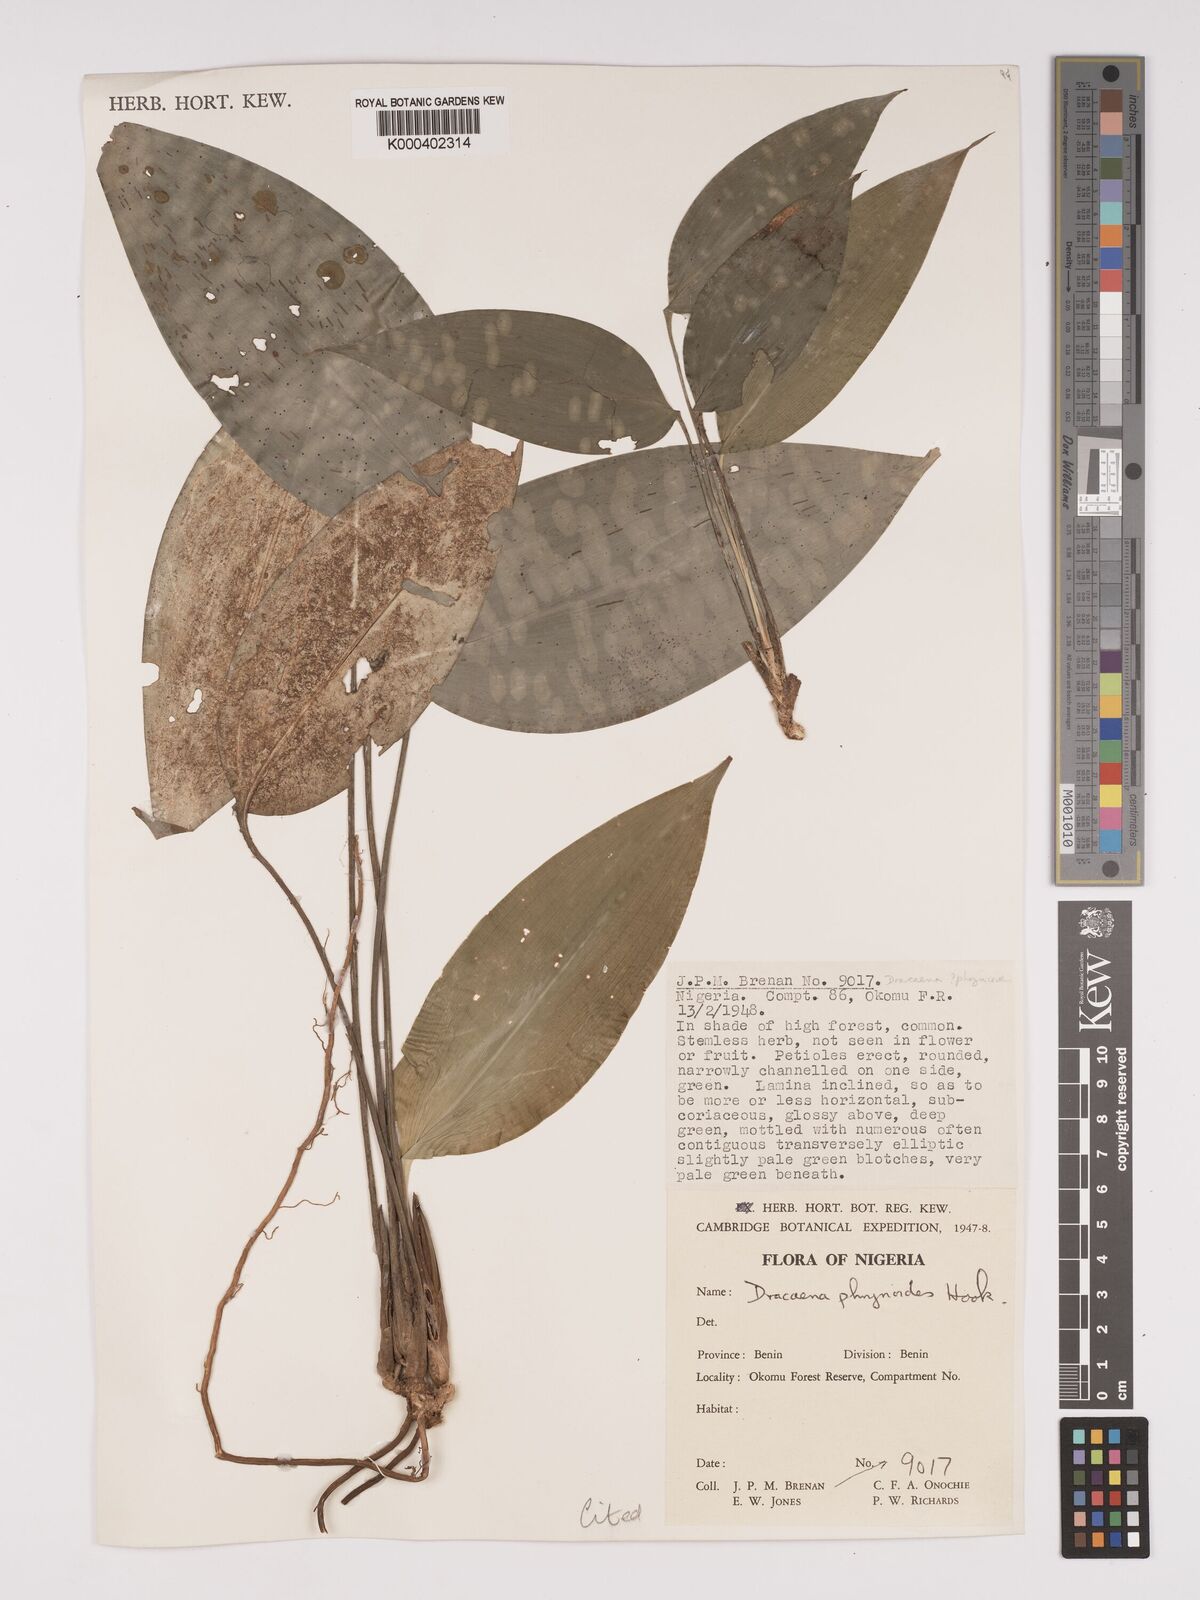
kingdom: Plantae
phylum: Tracheophyta
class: Liliopsida
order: Asparagales
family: Asparagaceae
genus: Dracaena
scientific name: Dracaena phrynioides
